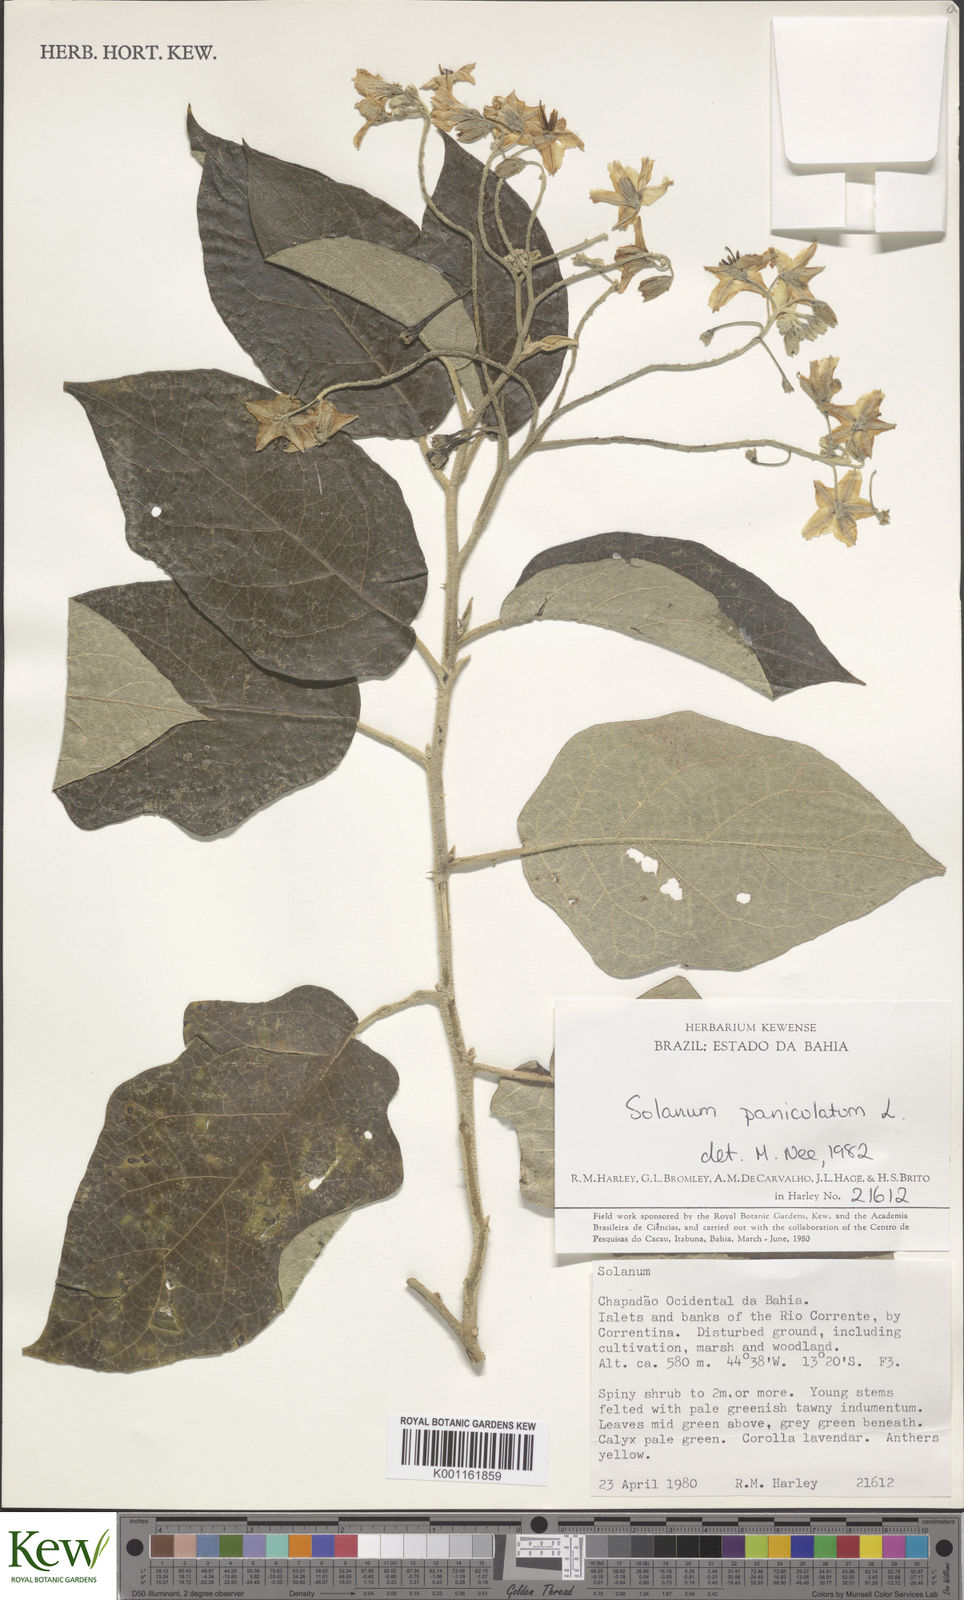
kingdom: Plantae
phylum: Tracheophyta
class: Magnoliopsida
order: Solanales
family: Solanaceae
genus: Solanum
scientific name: Solanum paniculatum
